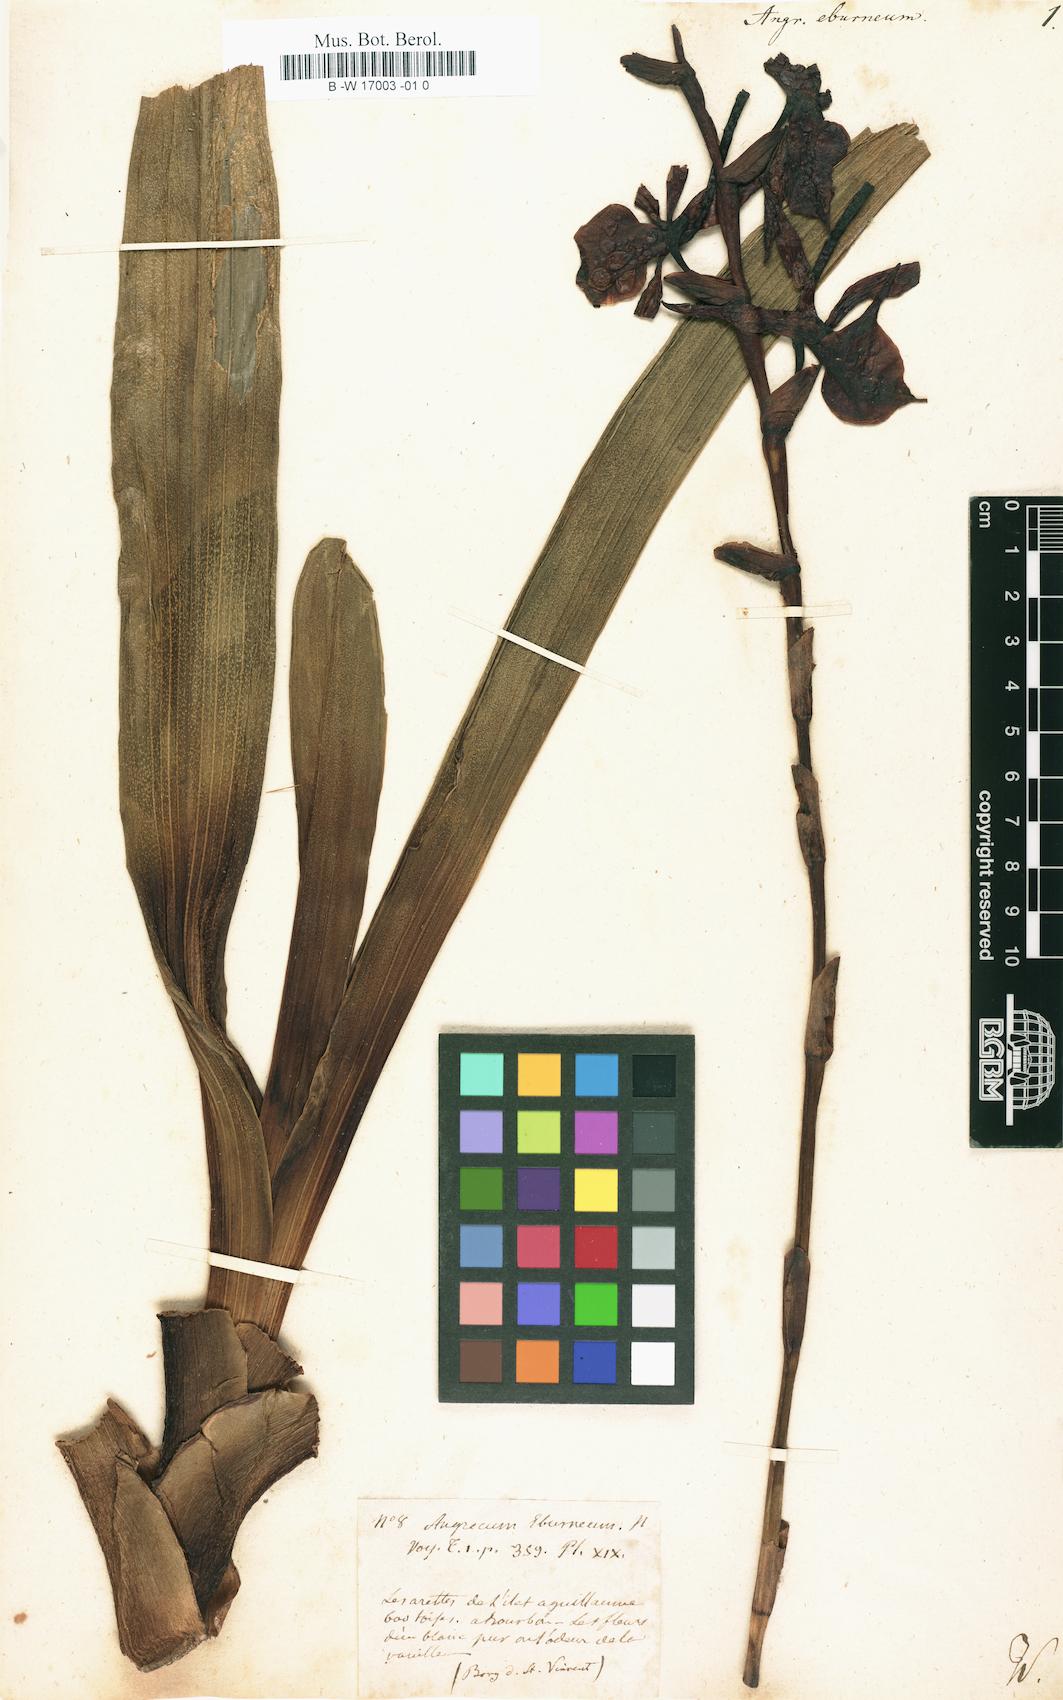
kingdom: Plantae
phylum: Tracheophyta
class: Liliopsida
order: Asparagales
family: Orchidaceae
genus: Angraecum
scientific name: Angraecum eburneum
